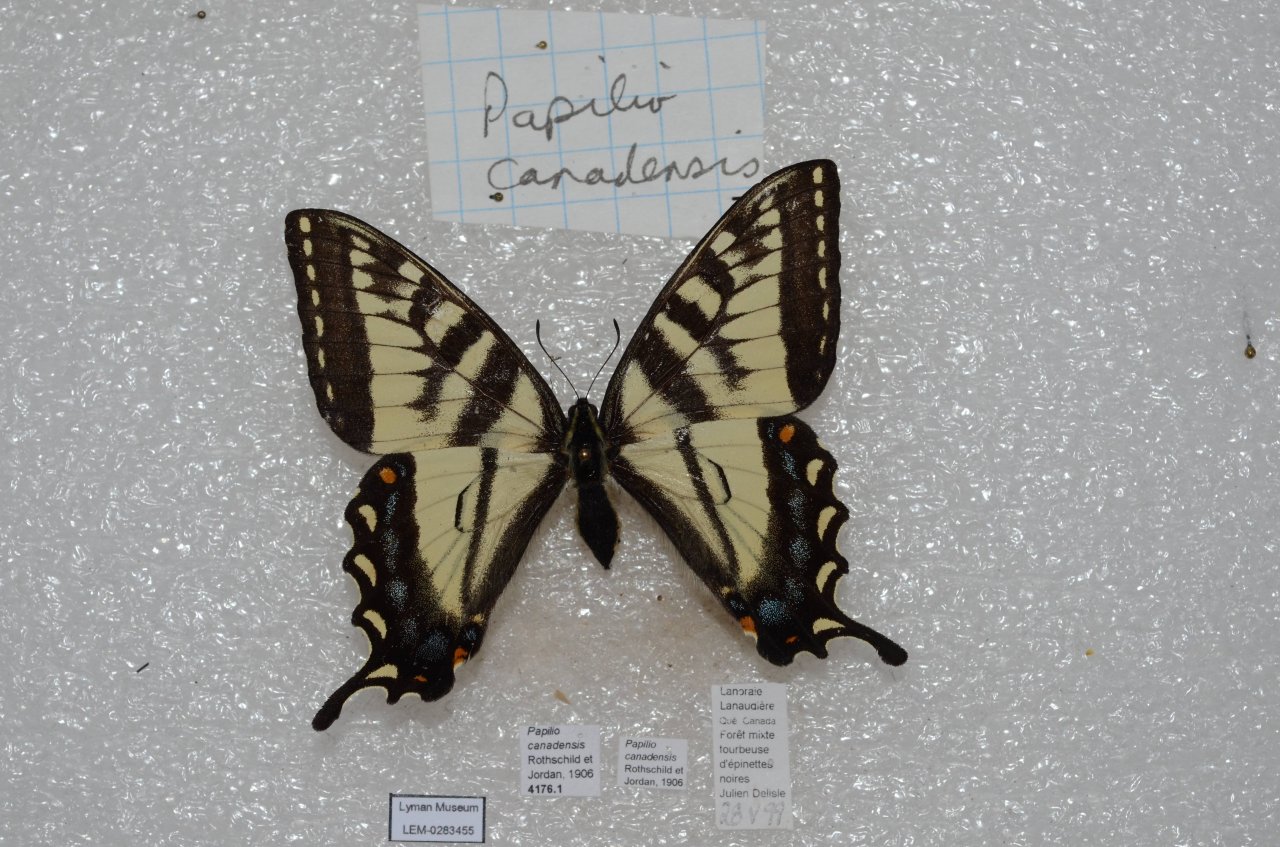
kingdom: Animalia
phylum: Arthropoda
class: Insecta
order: Lepidoptera
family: Papilionidae
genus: Pterourus
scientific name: Pterourus canadensis
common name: Canadian Tiger Swallowtail
